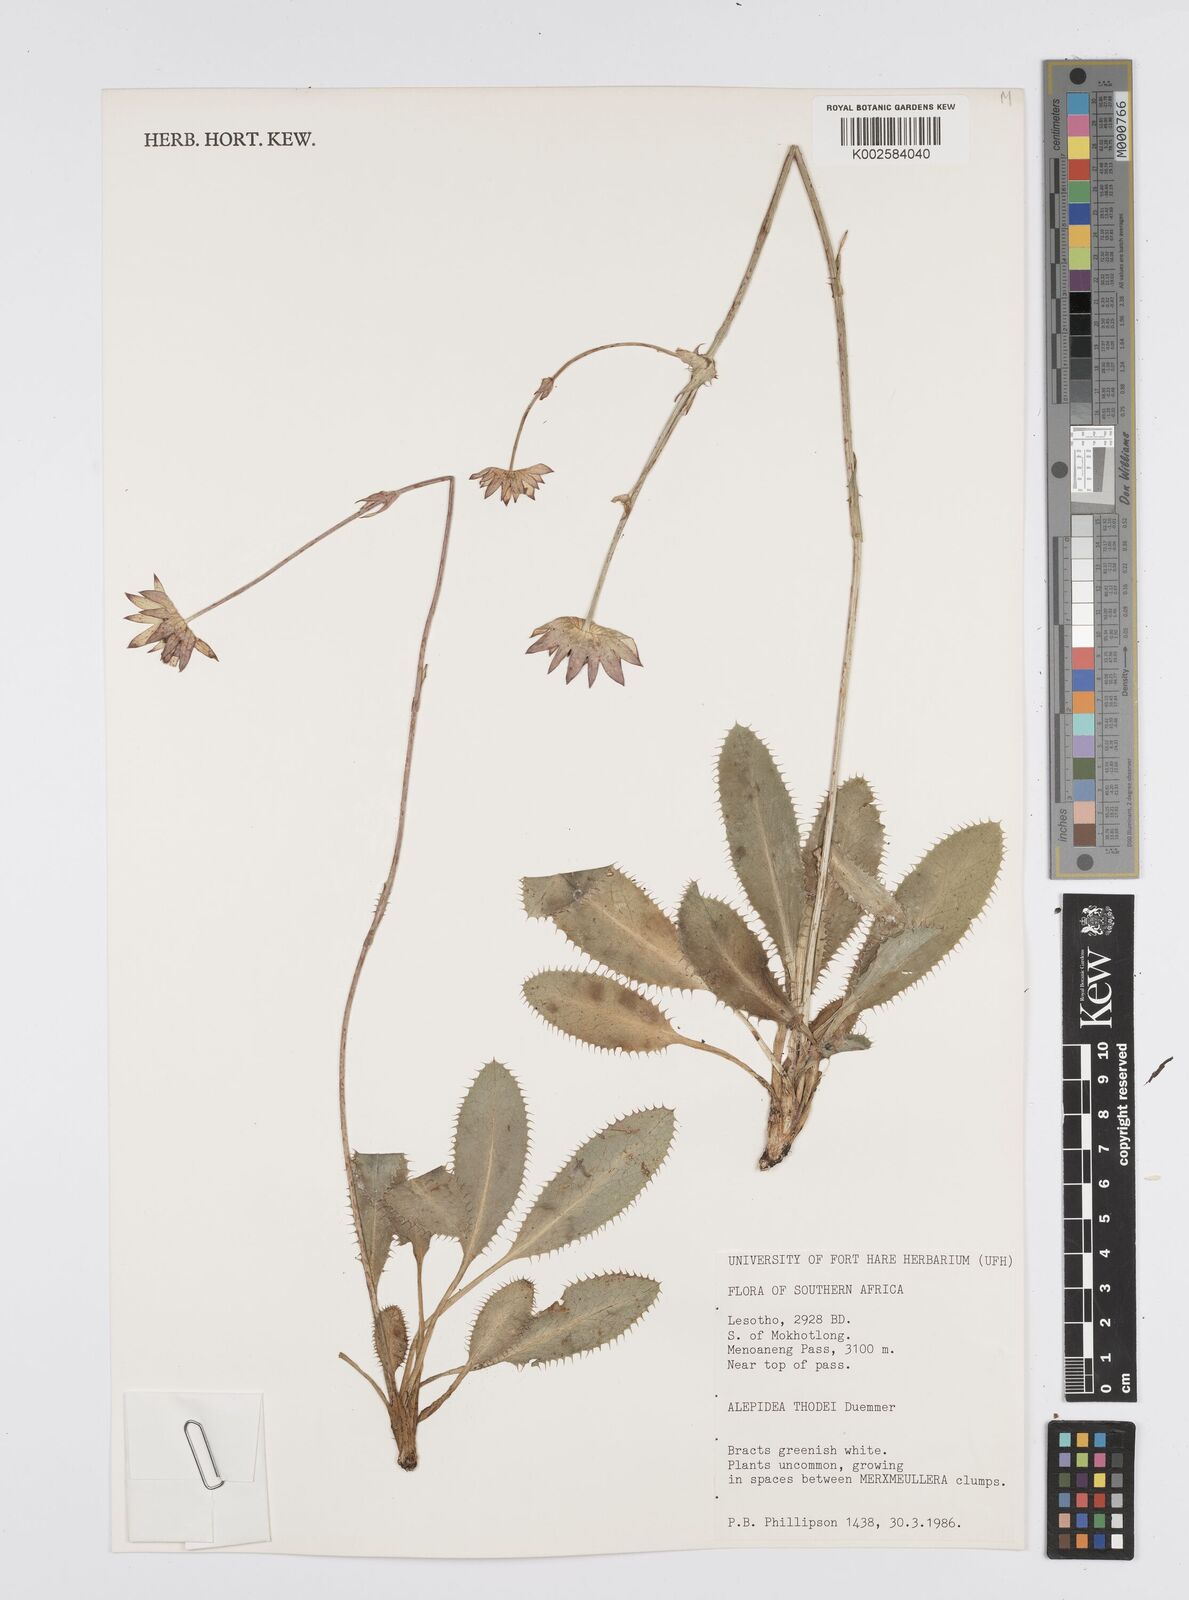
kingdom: Plantae
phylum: Tracheophyta
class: Magnoliopsida
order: Apiales
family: Apiaceae
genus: Alepidea
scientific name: Alepidea thodei
